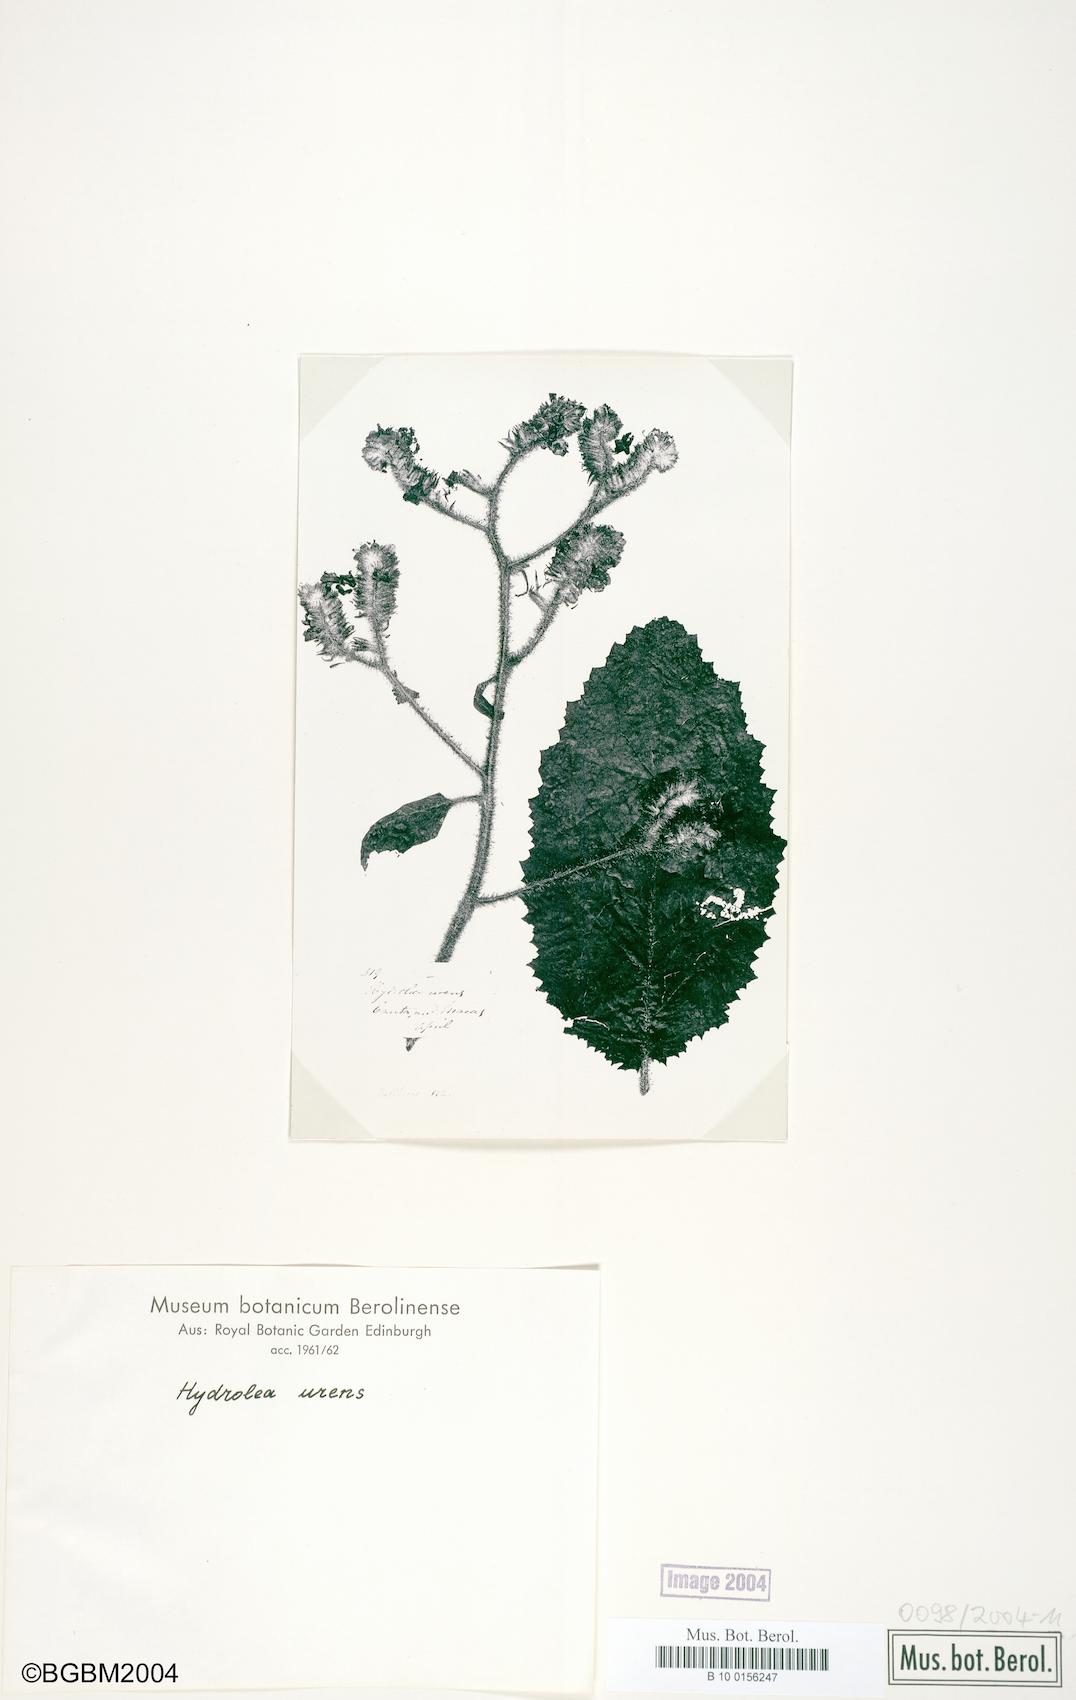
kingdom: Plantae
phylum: Tracheophyta
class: Magnoliopsida
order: Boraginales
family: Namaceae
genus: Wigandia
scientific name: Wigandia urens
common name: Caracus wigandia
